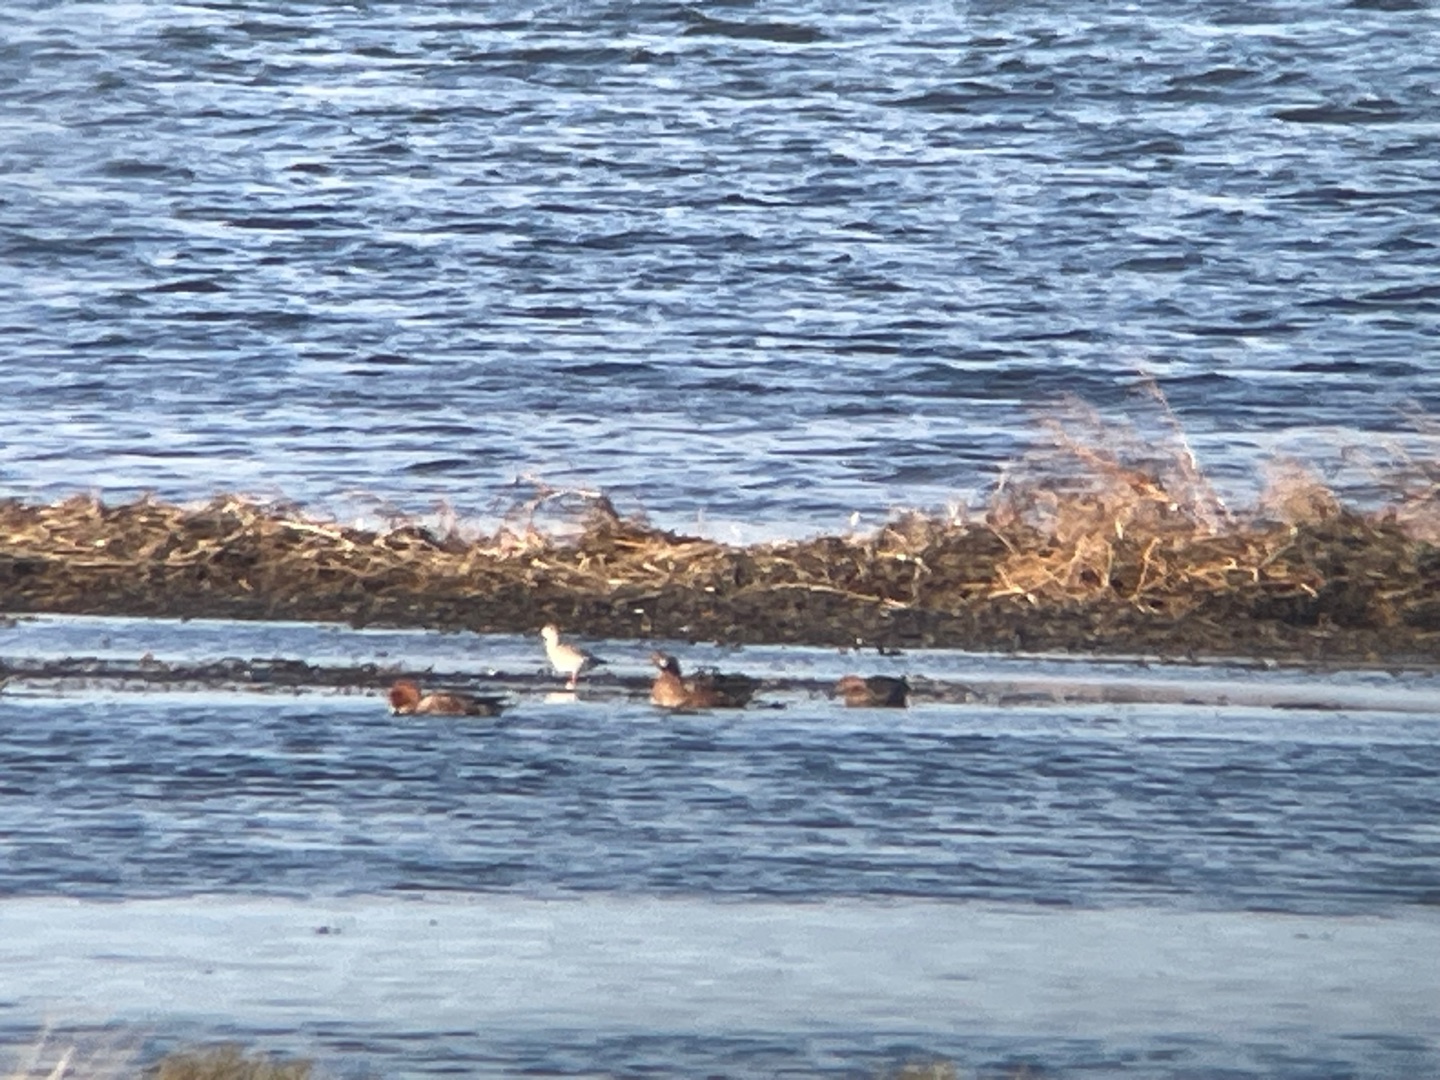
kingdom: Animalia
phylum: Chordata
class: Aves
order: Anseriformes
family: Anatidae
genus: Mareca
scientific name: Mareca penelope
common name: Pibeand
